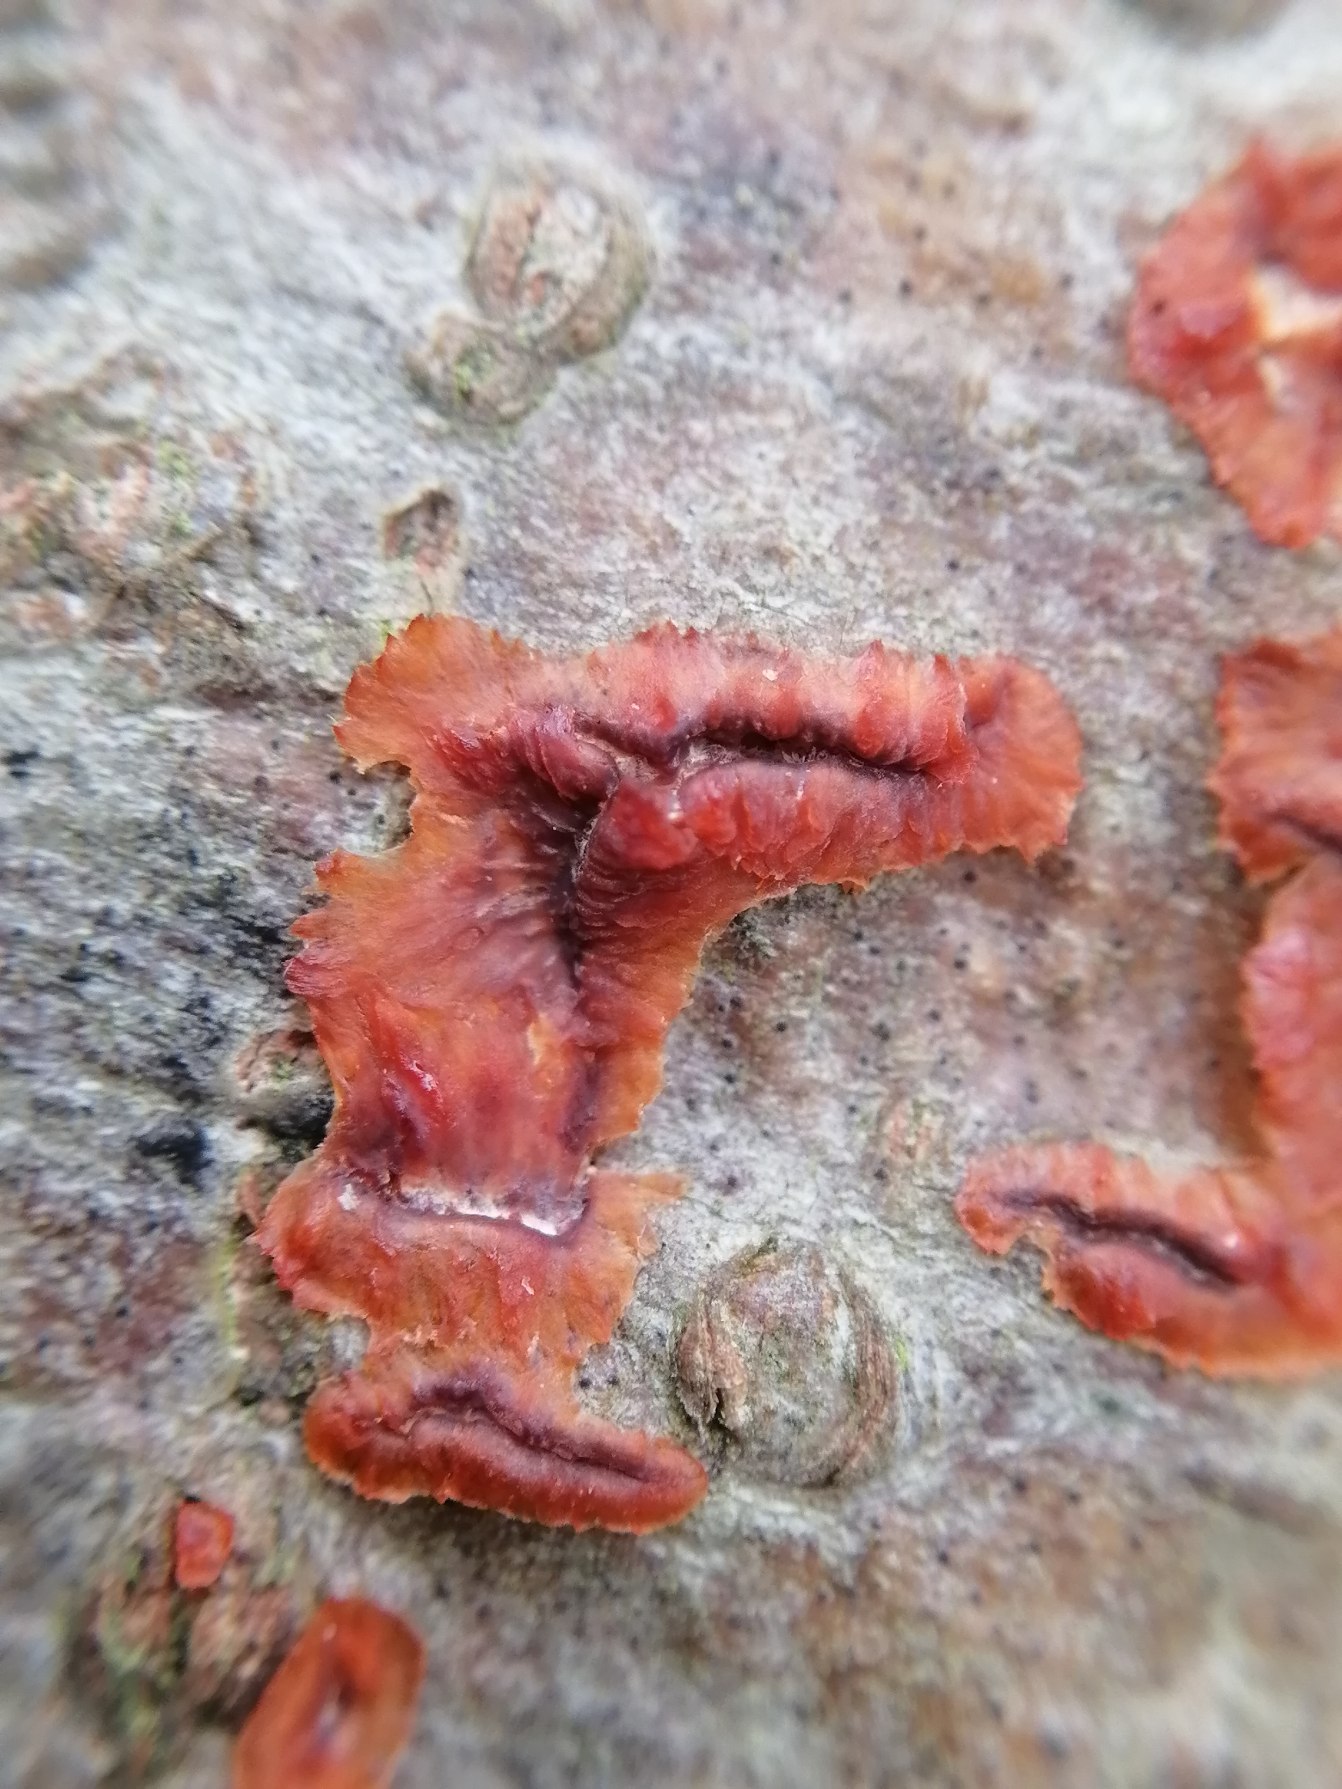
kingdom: Fungi
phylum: Basidiomycota
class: Agaricomycetes
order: Polyporales
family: Meruliaceae
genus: Phlebia
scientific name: Phlebia radiata
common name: Stråle-åresvamp
